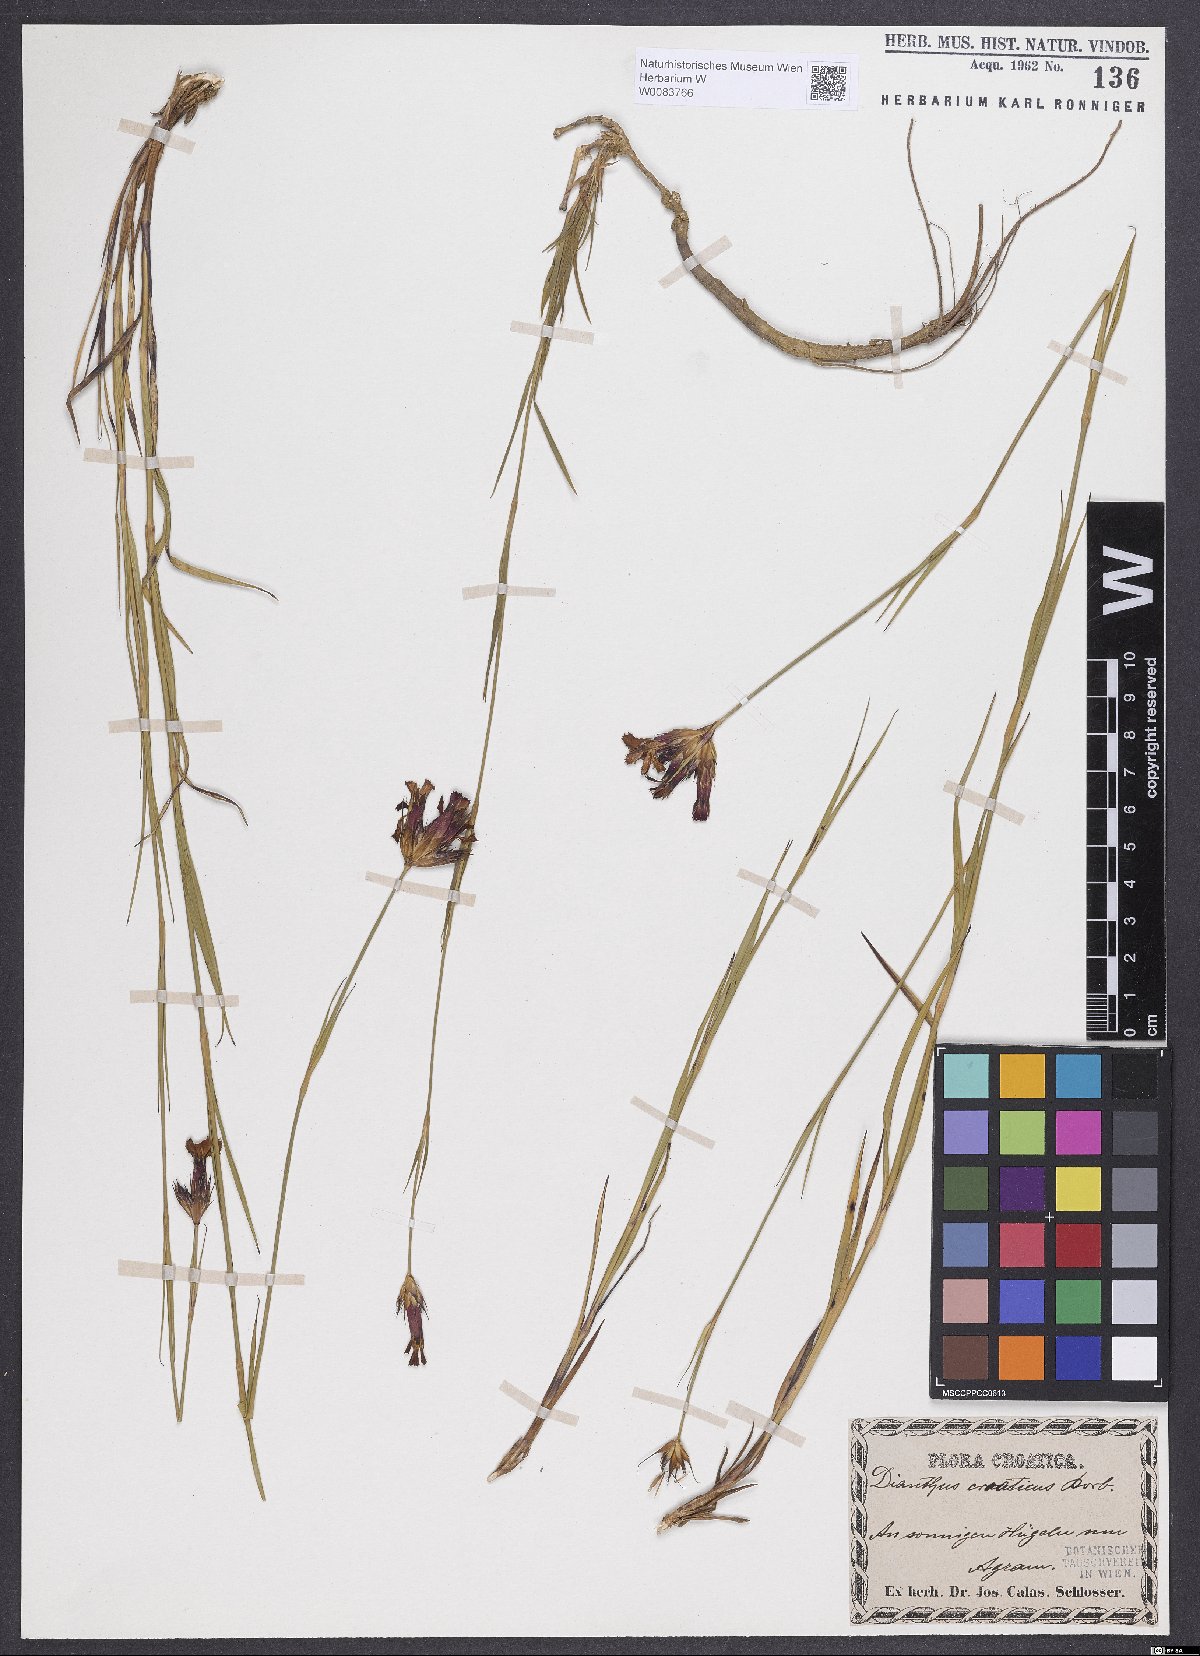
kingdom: Plantae
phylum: Tracheophyta
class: Magnoliopsida
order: Caryophyllales
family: Caryophyllaceae
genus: Dianthus
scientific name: Dianthus giganteus
